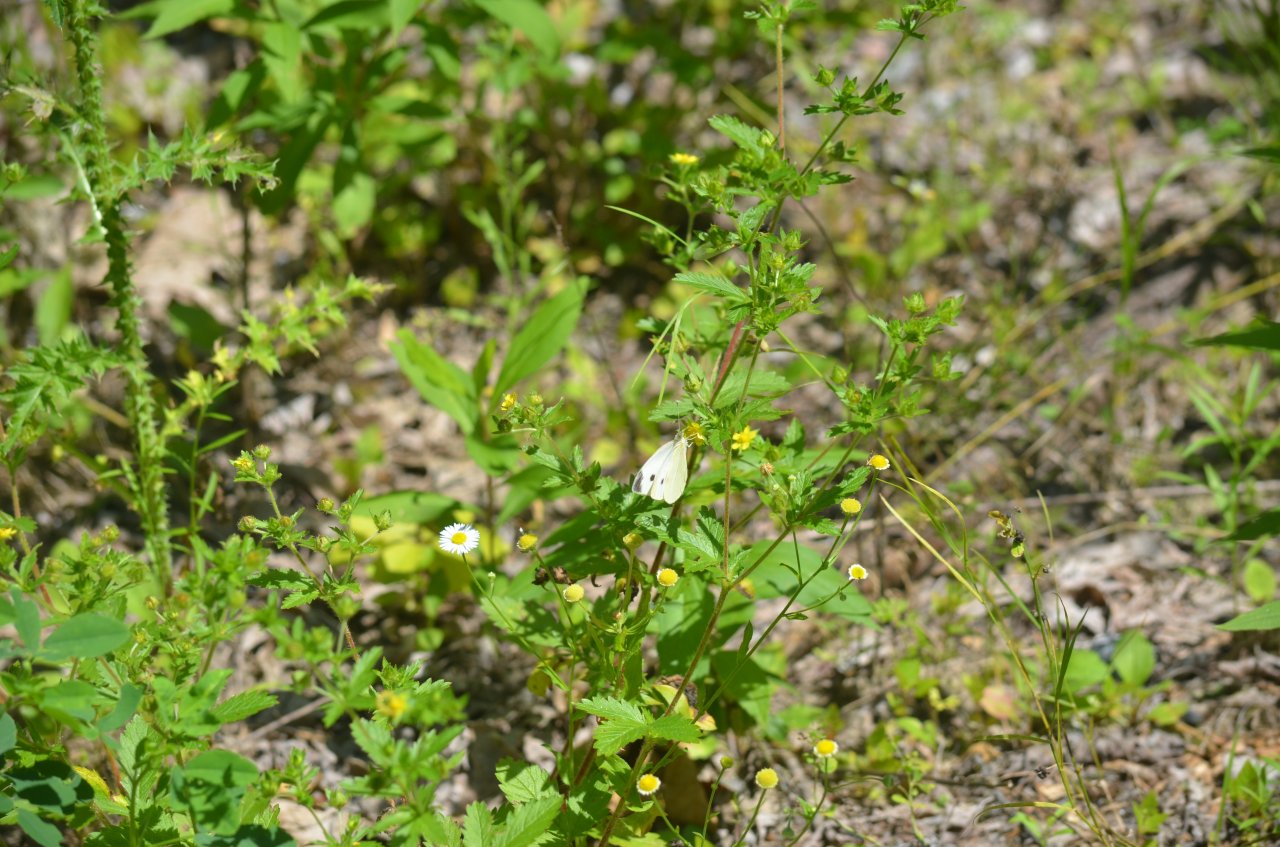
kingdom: Animalia
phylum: Arthropoda
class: Insecta
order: Lepidoptera
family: Pieridae
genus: Pieris
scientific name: Pieris rapae
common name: Cabbage White
